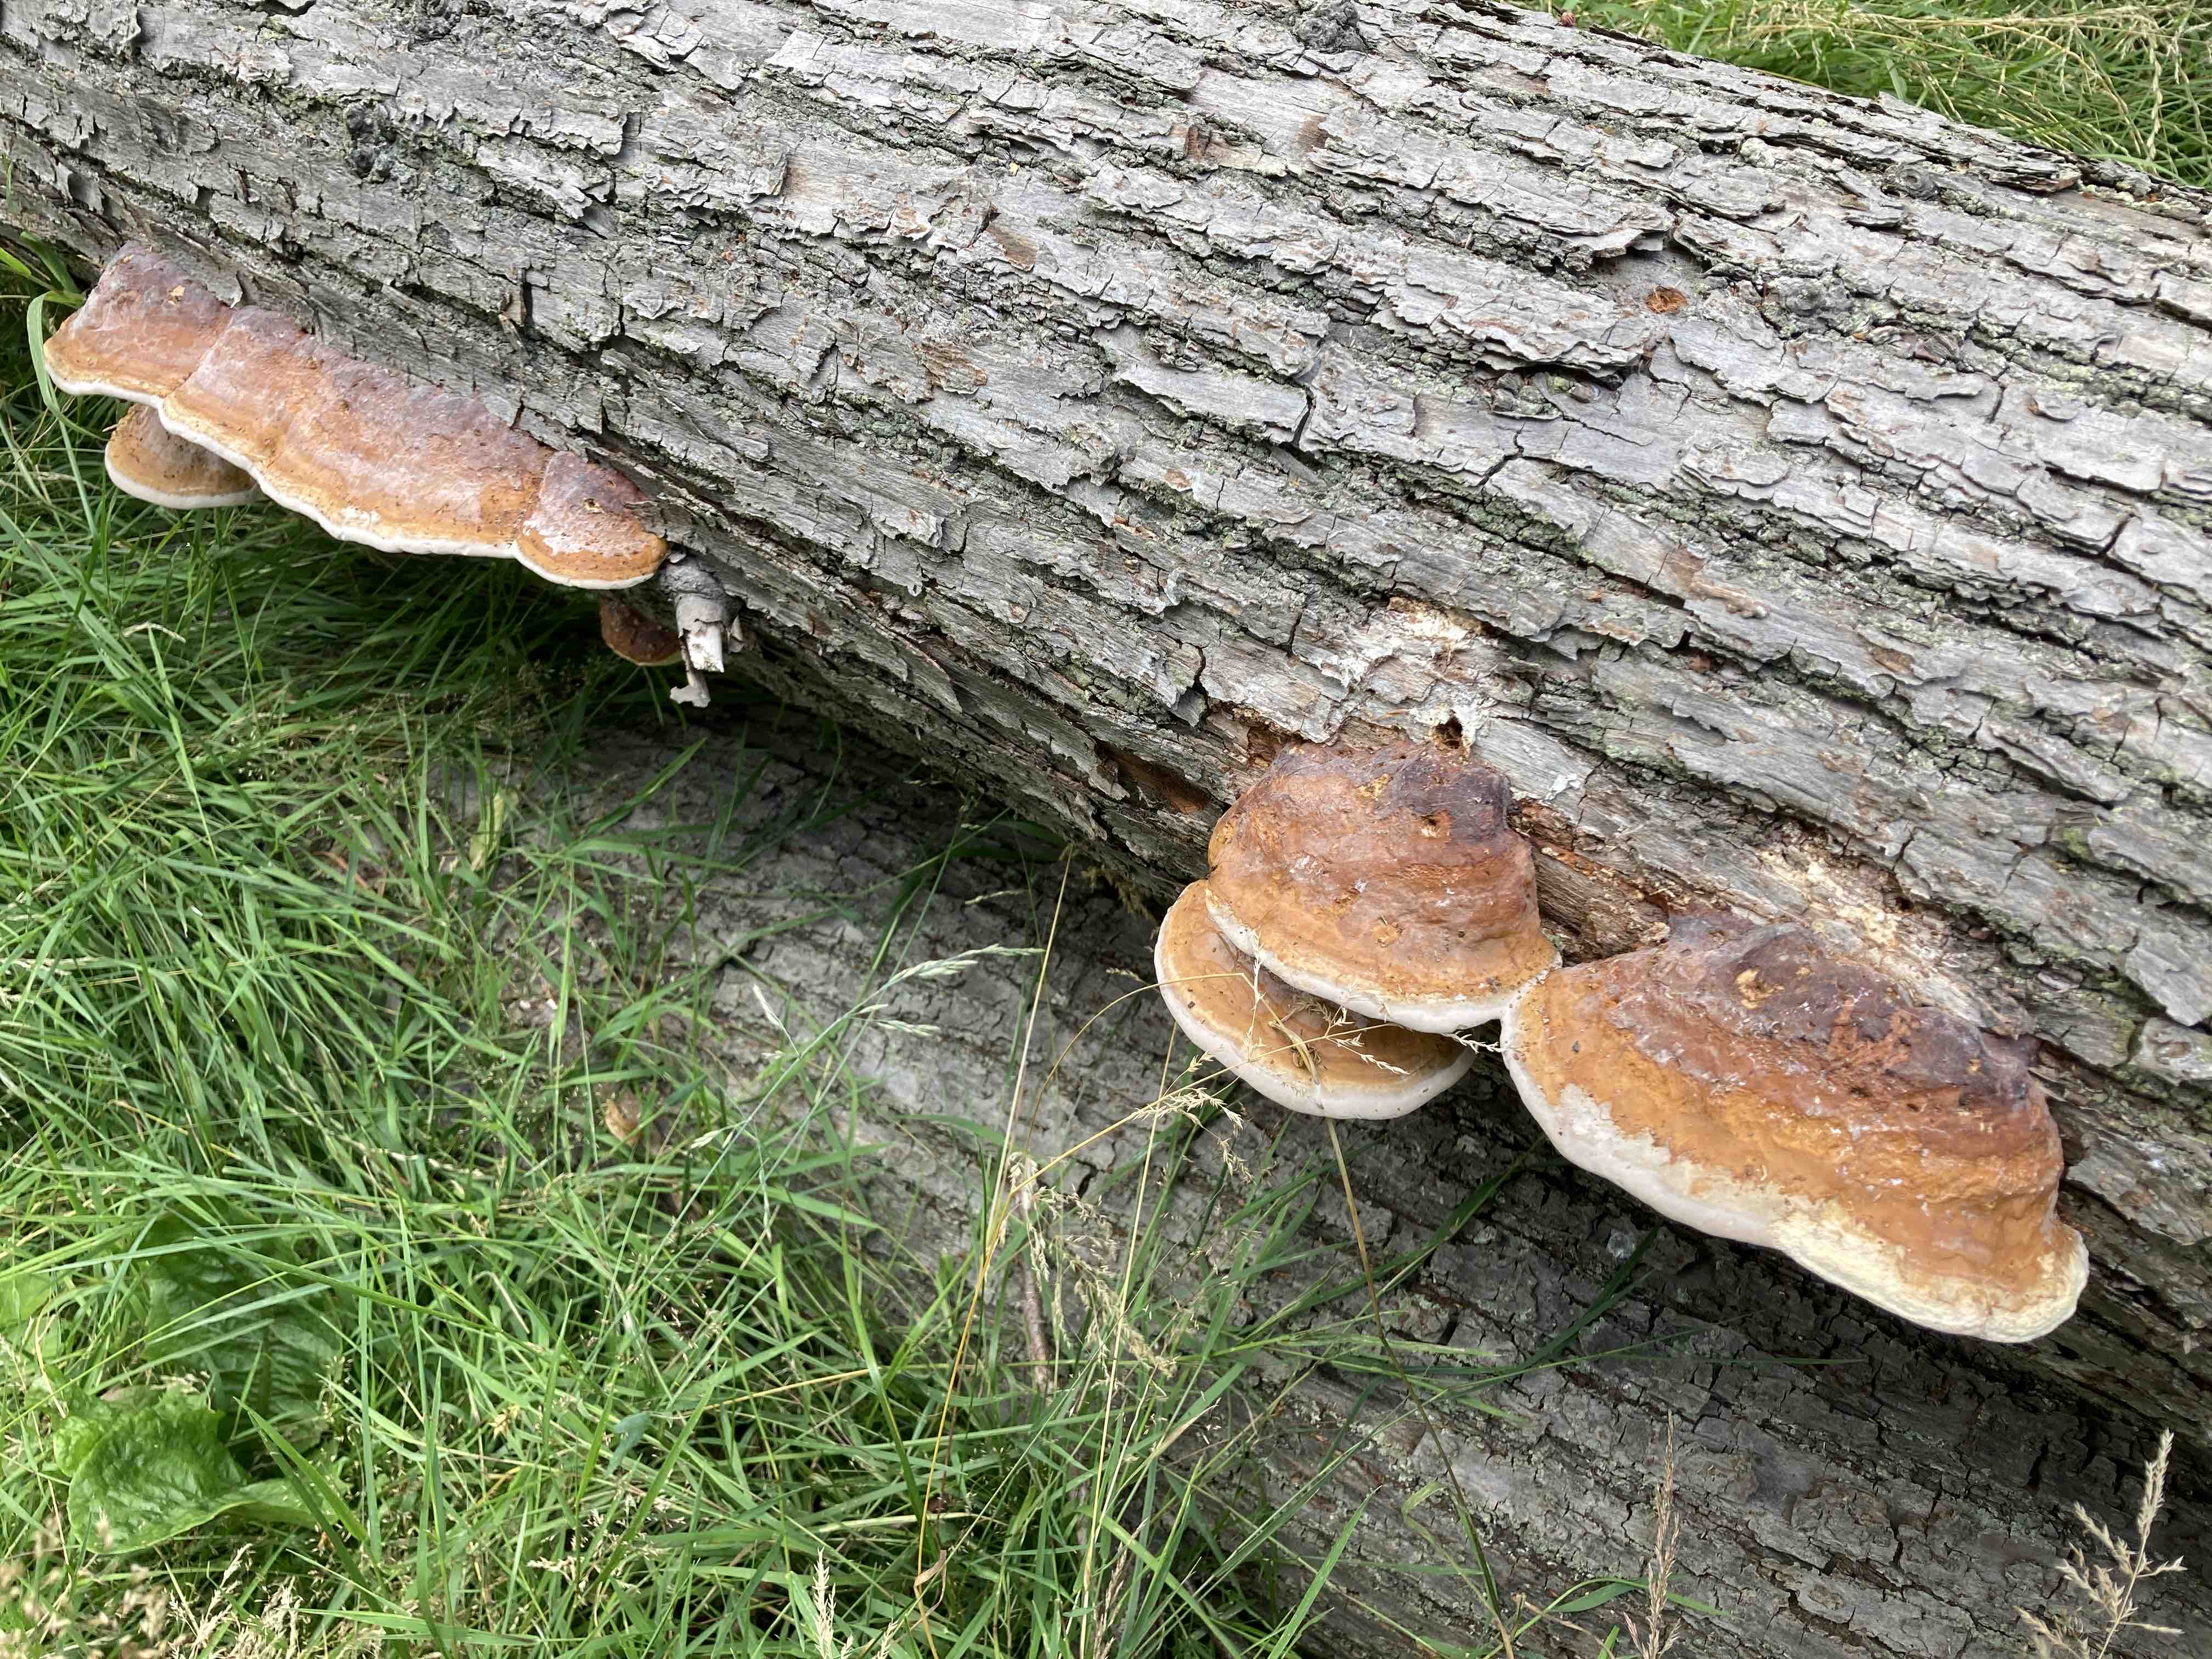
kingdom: Fungi
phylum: Basidiomycota
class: Agaricomycetes
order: Polyporales
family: Fomitopsidaceae
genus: Fomitopsis
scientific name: Fomitopsis pinicola
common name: randbæltet hovporesvamp
